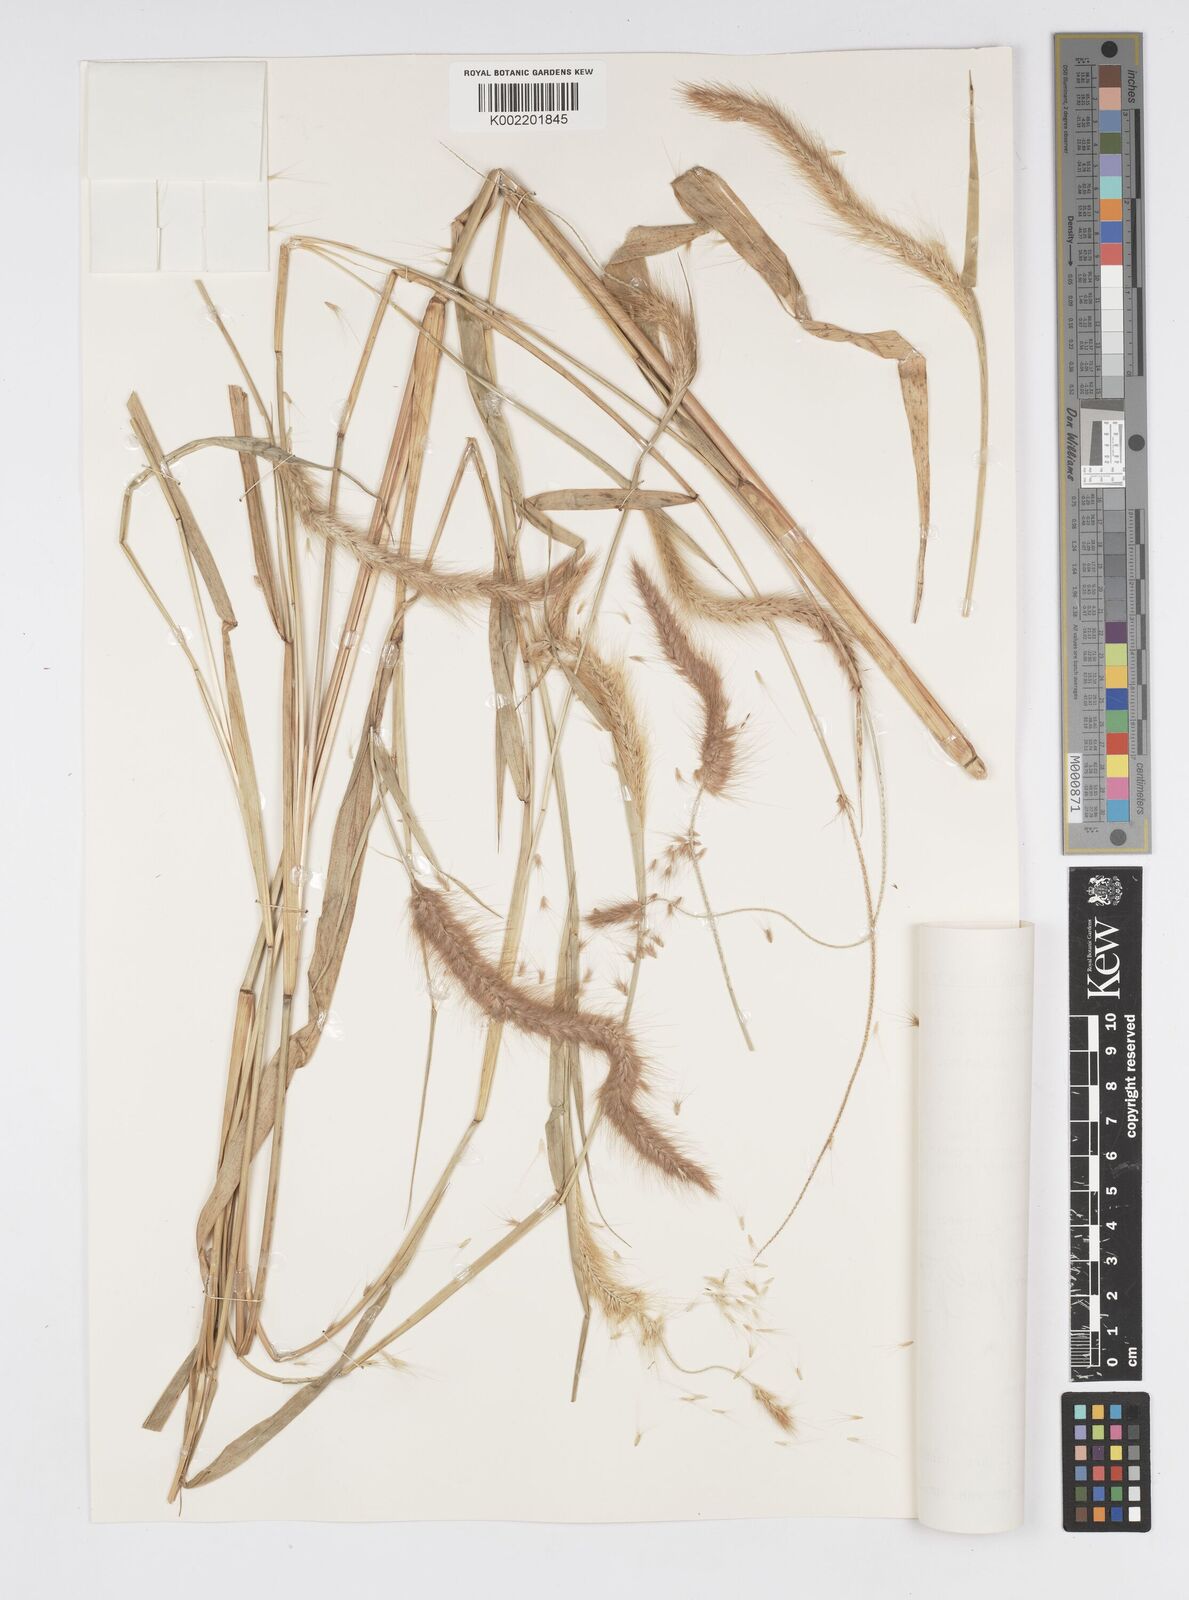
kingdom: Plantae
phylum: Tracheophyta
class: Liliopsida
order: Poales
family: Poaceae
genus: Setaria
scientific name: Setaria parviflora
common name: Knotroot bristle-grass
